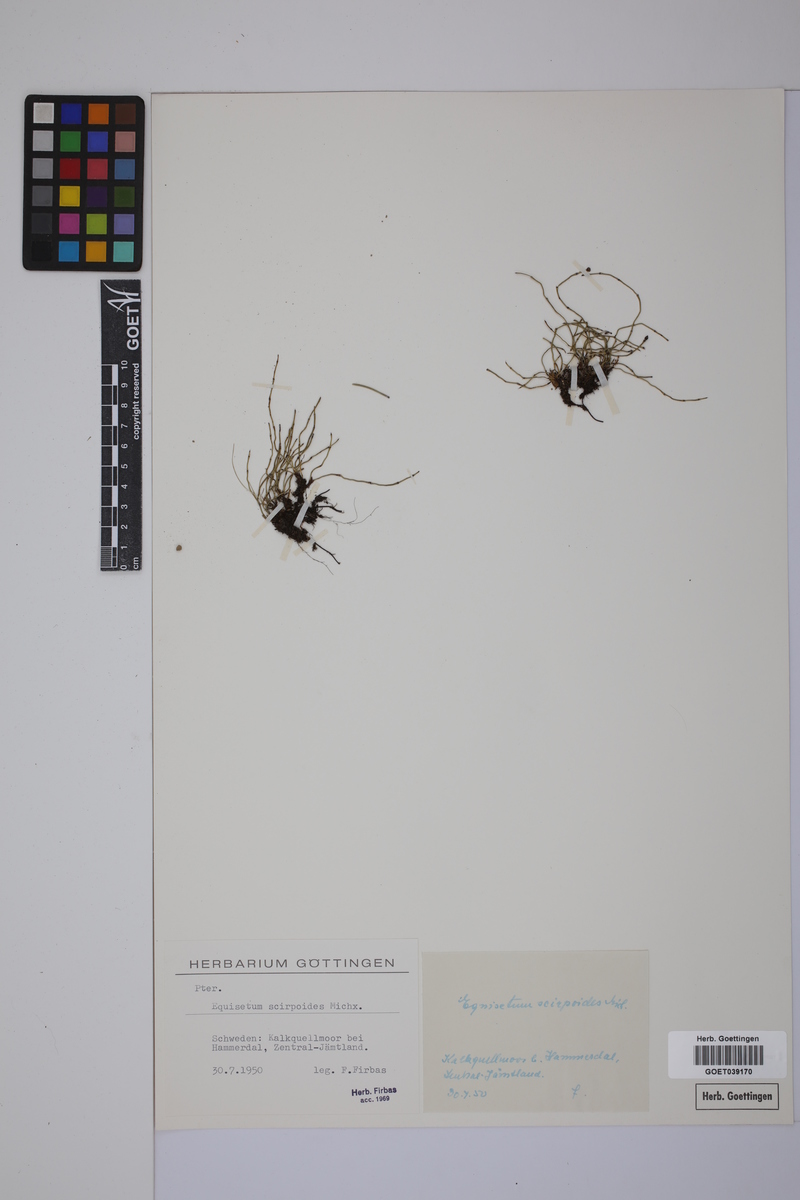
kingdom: Plantae
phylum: Tracheophyta
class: Polypodiopsida
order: Equisetales
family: Equisetaceae
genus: Equisetum
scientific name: Equisetum scirpoides
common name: Delicate horsetail
